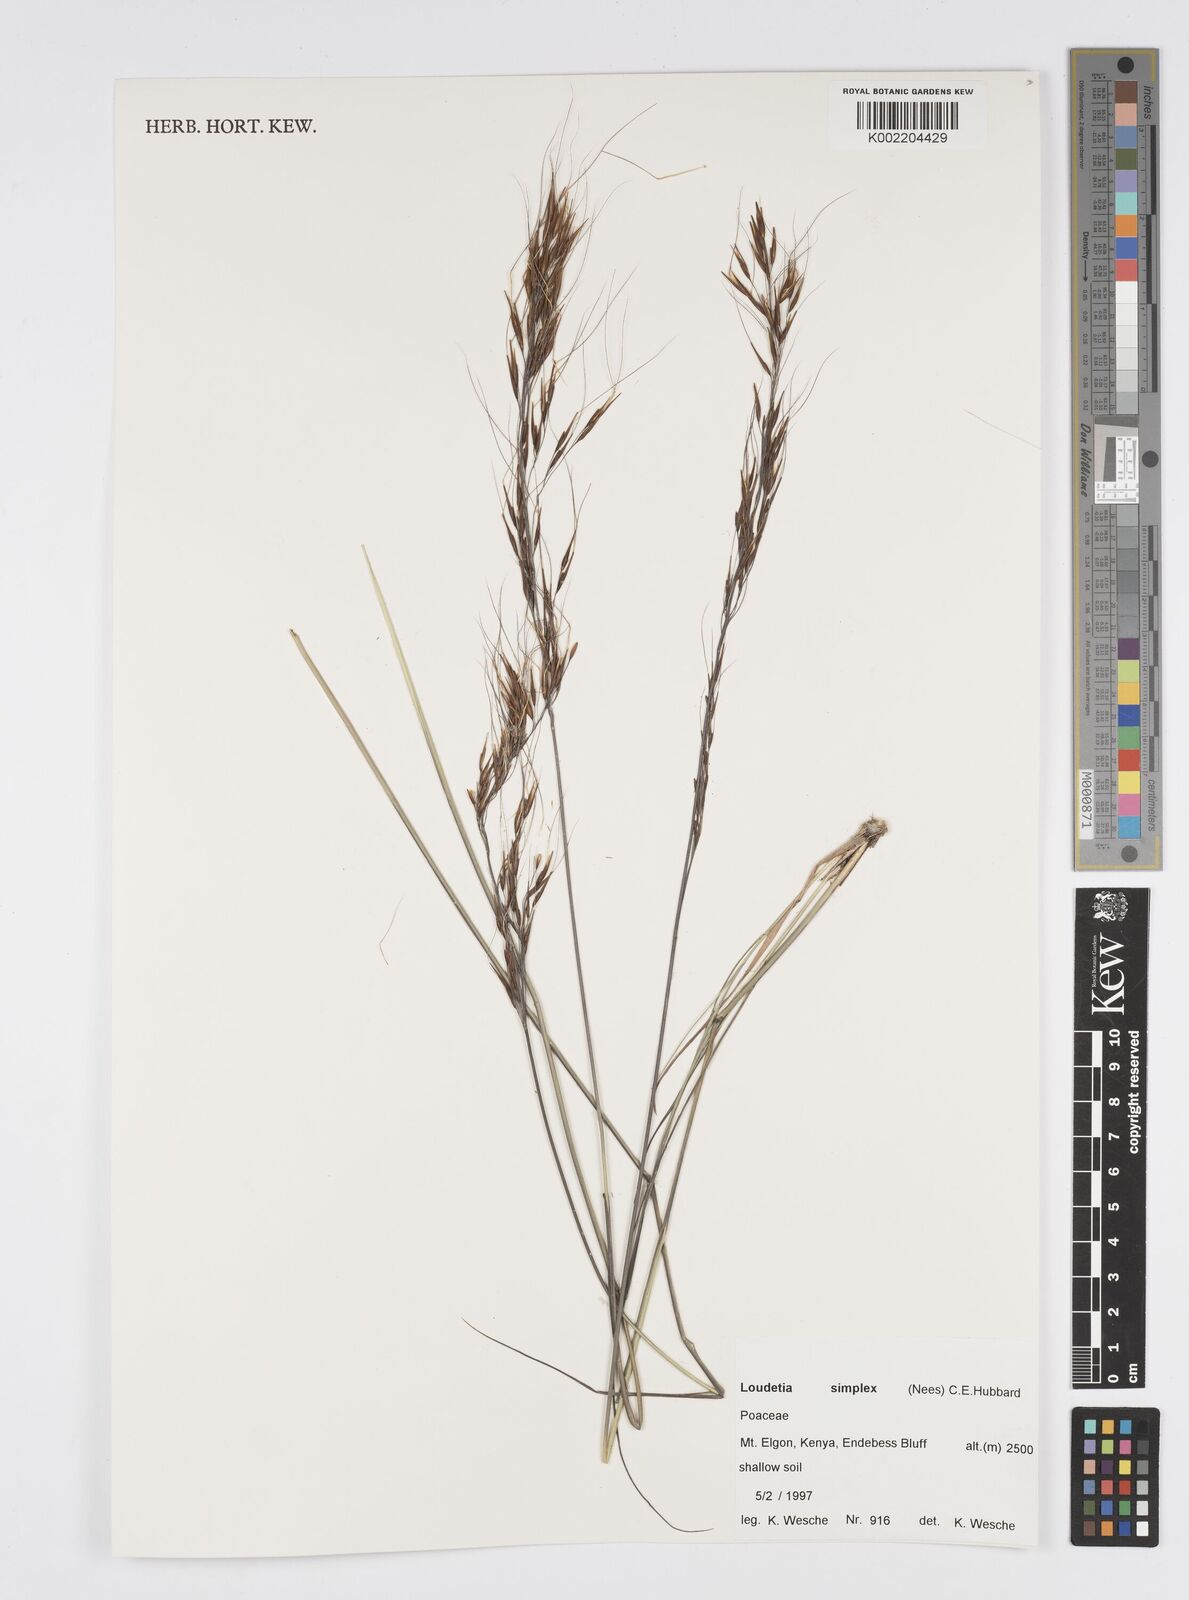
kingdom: Plantae
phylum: Tracheophyta
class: Liliopsida
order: Poales
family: Poaceae
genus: Loudetia
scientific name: Loudetia simplex
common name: Common russet grass
